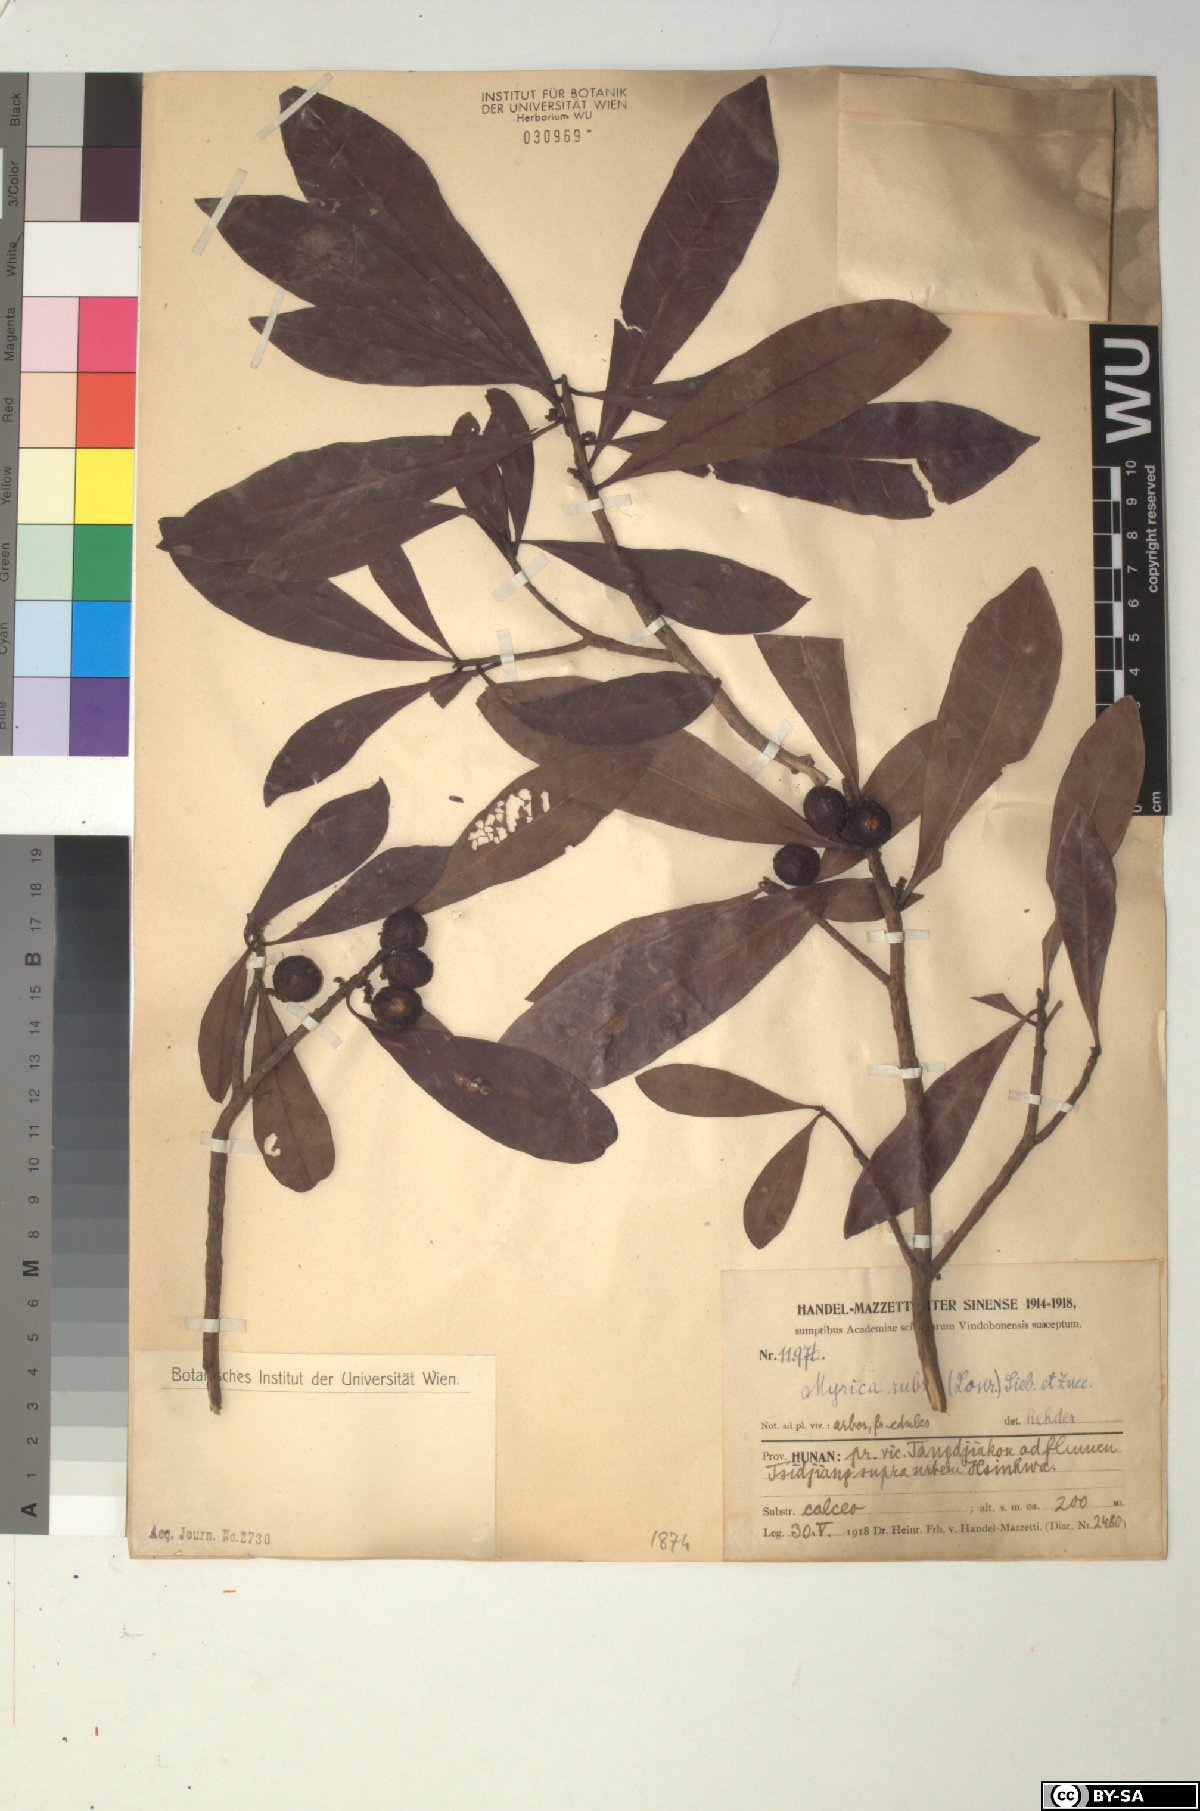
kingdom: Plantae
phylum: Tracheophyta
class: Magnoliopsida
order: Fagales
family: Myricaceae
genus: Morella
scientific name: Morella rubra
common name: Red bayberry
